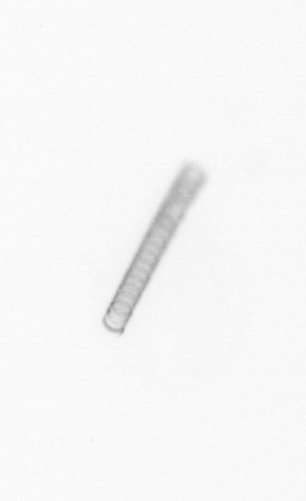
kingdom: Chromista
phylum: Ochrophyta
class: Bacillariophyceae
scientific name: Bacillariophyceae
